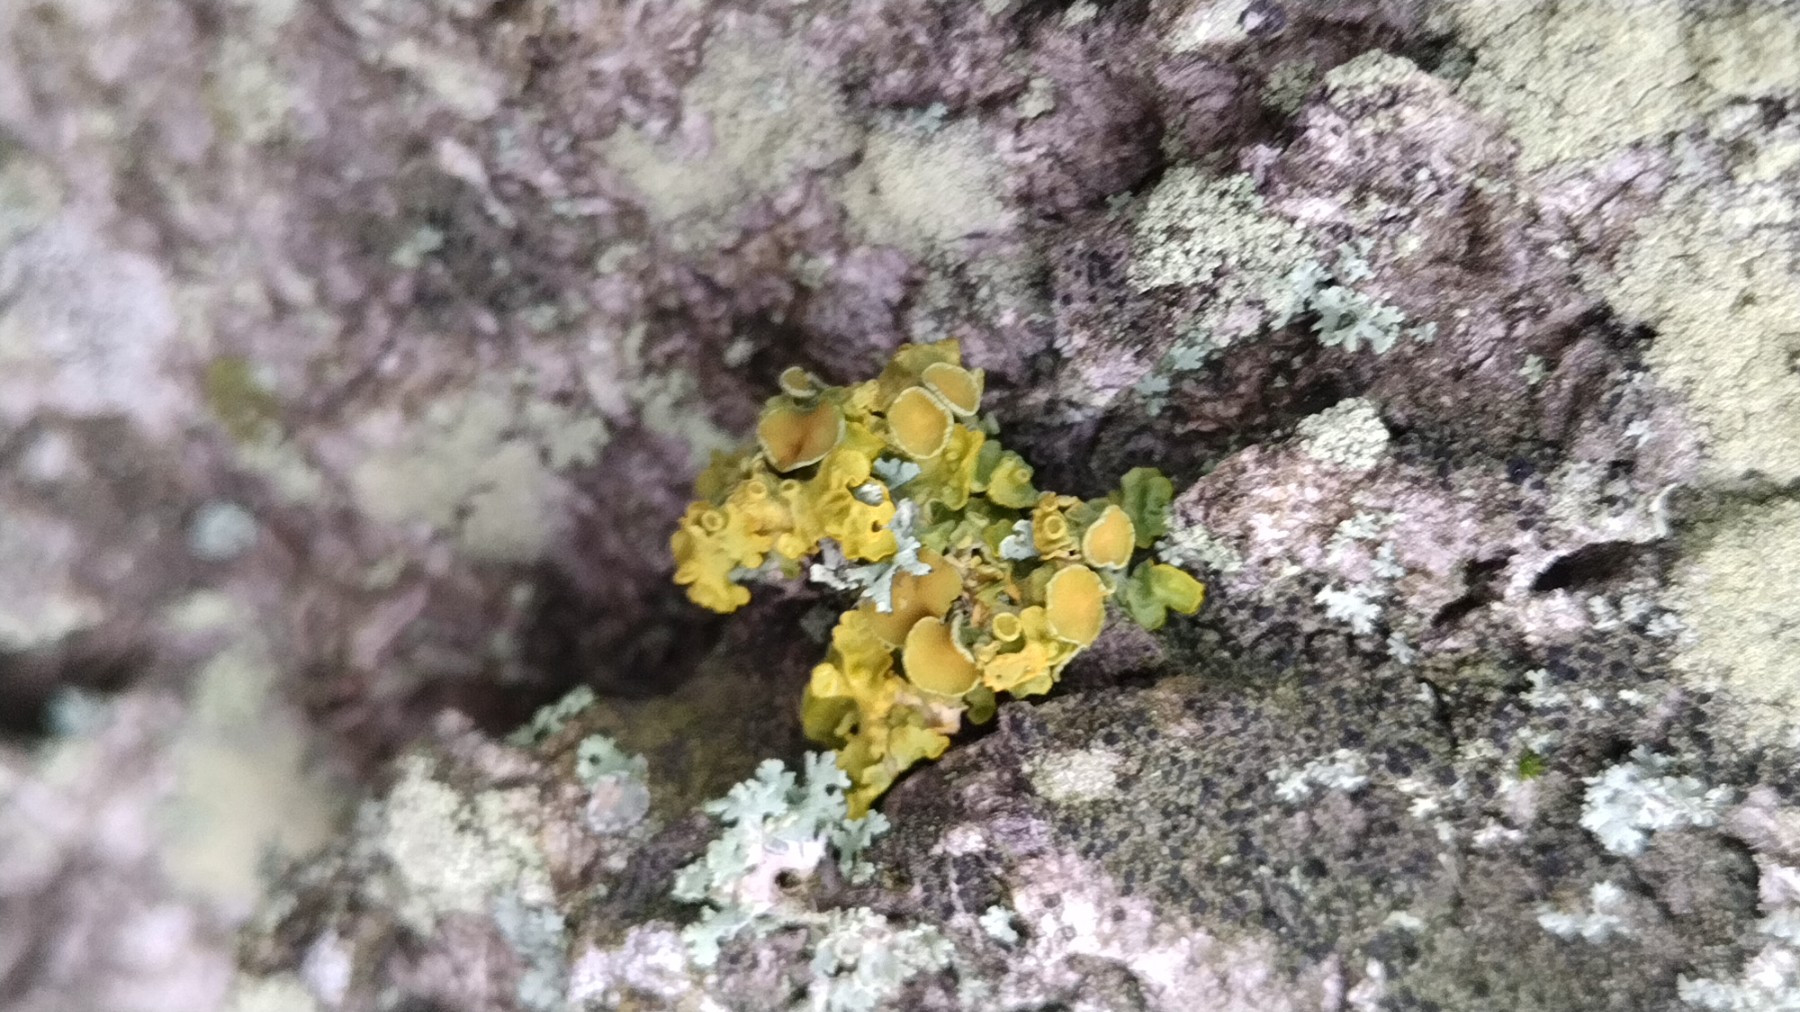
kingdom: Fungi
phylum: Ascomycota
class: Lecanoromycetes
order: Teloschistales
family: Teloschistaceae
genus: Xanthoria
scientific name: Xanthoria parietina
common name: almindelig væggelav
